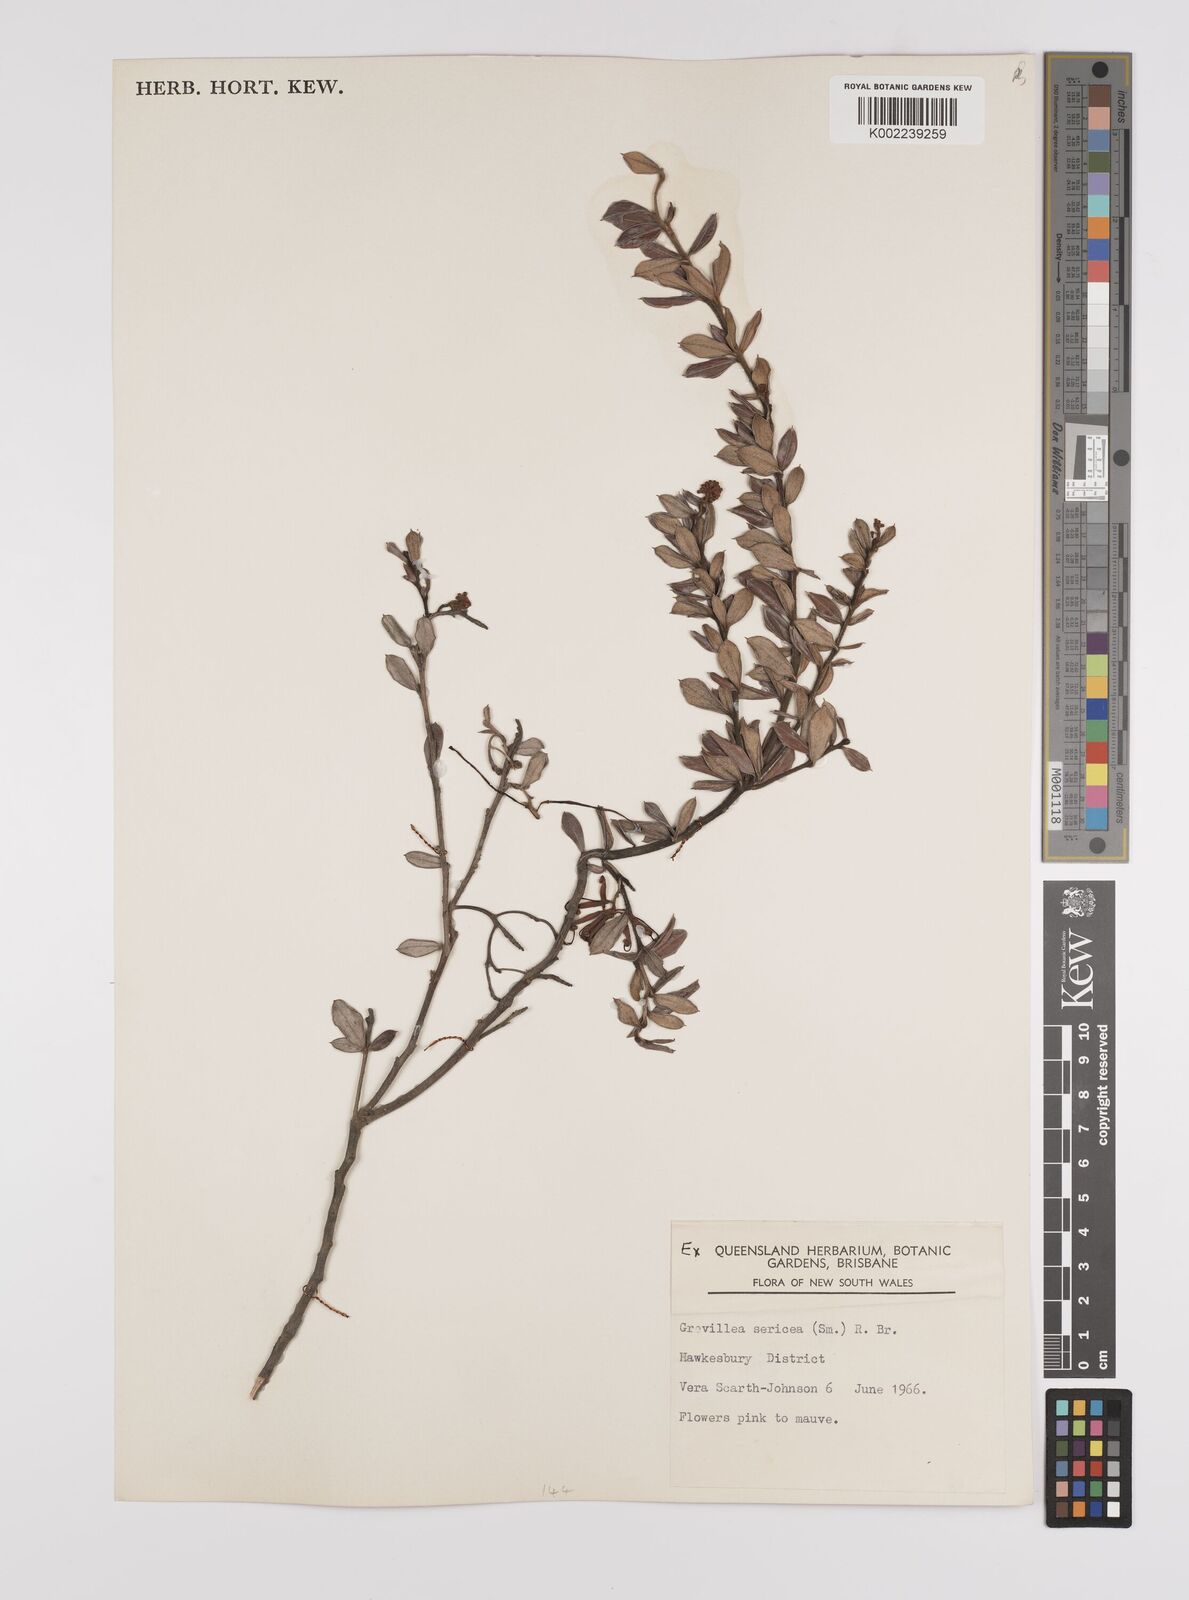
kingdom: Plantae
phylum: Tracheophyta
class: Magnoliopsida
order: Proteales
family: Proteaceae
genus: Grevillea
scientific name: Grevillea sericea
